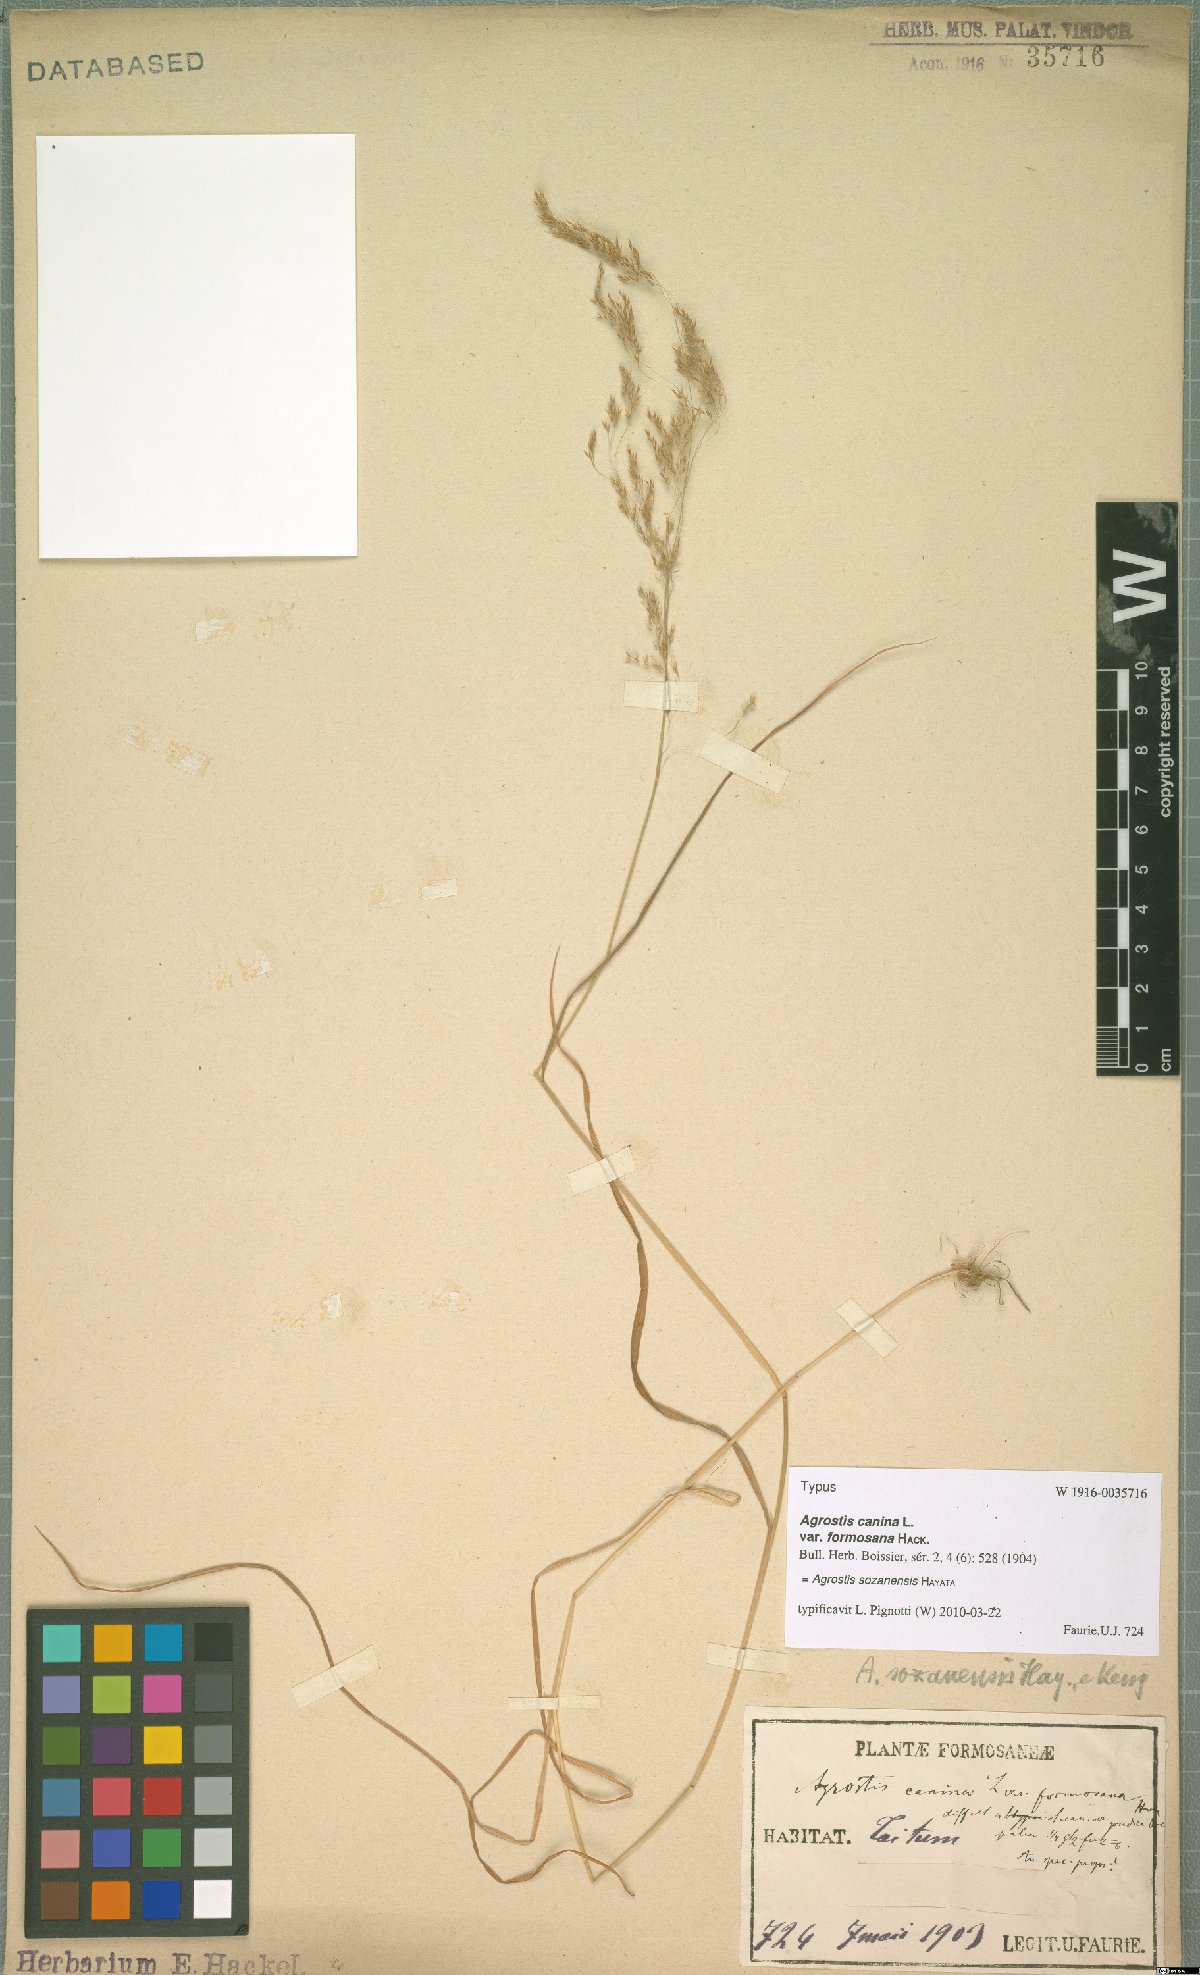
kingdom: Plantae
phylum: Tracheophyta
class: Liliopsida
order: Poales
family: Poaceae
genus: Agrostis
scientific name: Agrostis infirma
